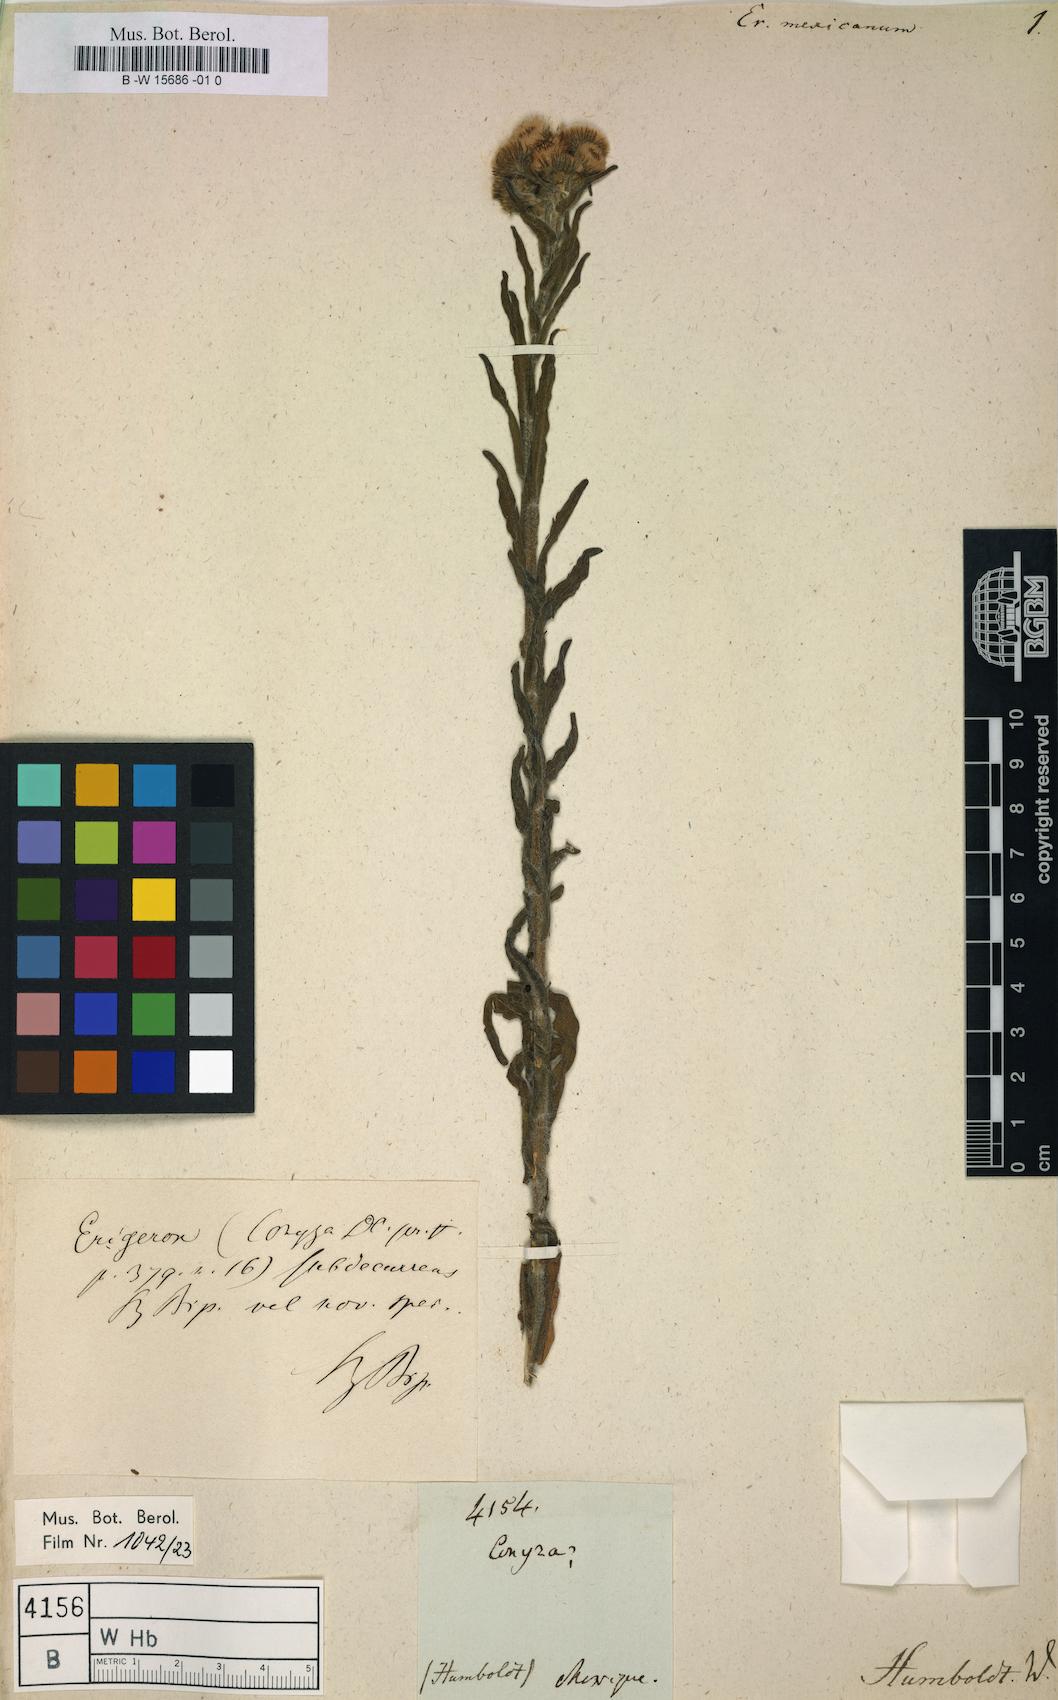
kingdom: Plantae
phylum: Tracheophyta
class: Magnoliopsida
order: Asterales
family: Asteraceae
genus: Erigeron
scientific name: Erigeron mexicanus
